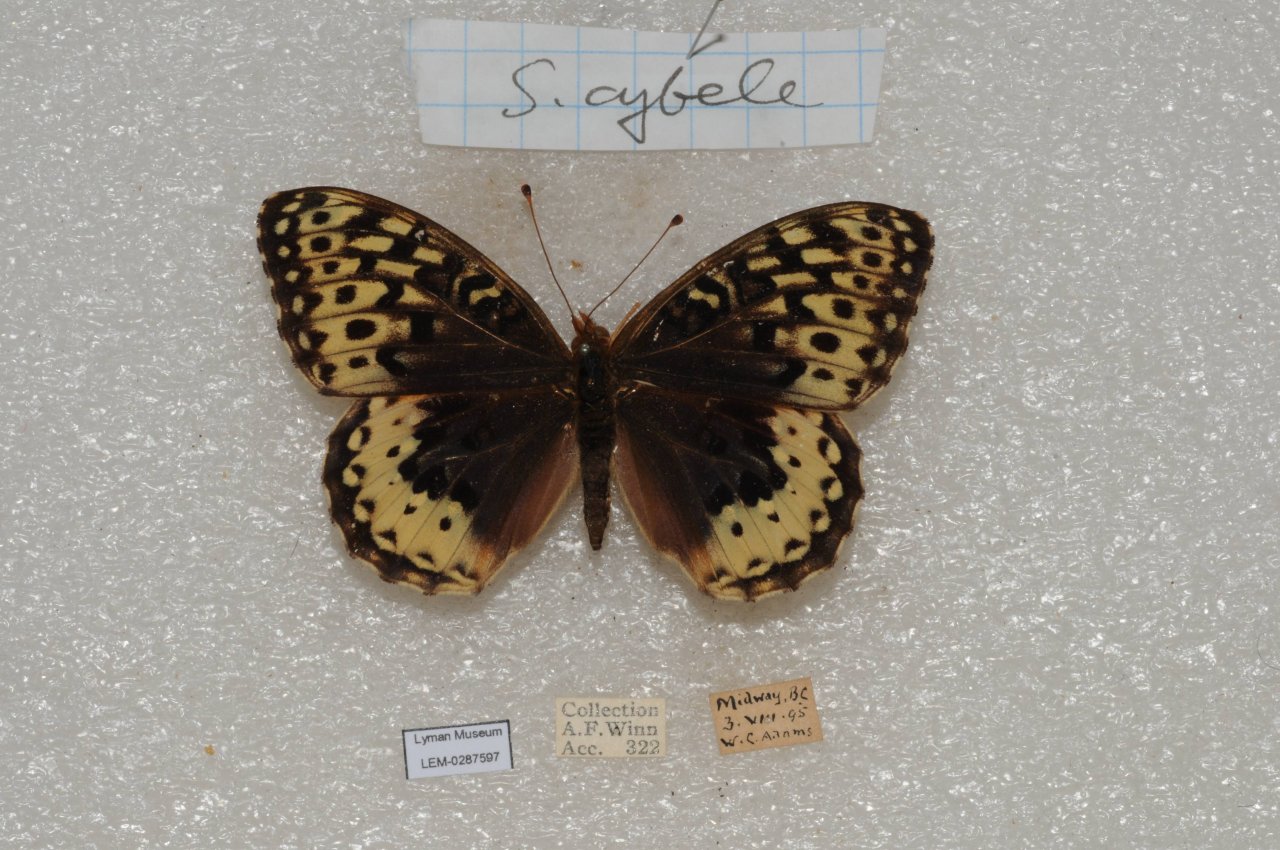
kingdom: Animalia
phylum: Arthropoda
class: Insecta
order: Lepidoptera
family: Nymphalidae
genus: Speyeria
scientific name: Speyeria cybele
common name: Great Spangled Fritillary
